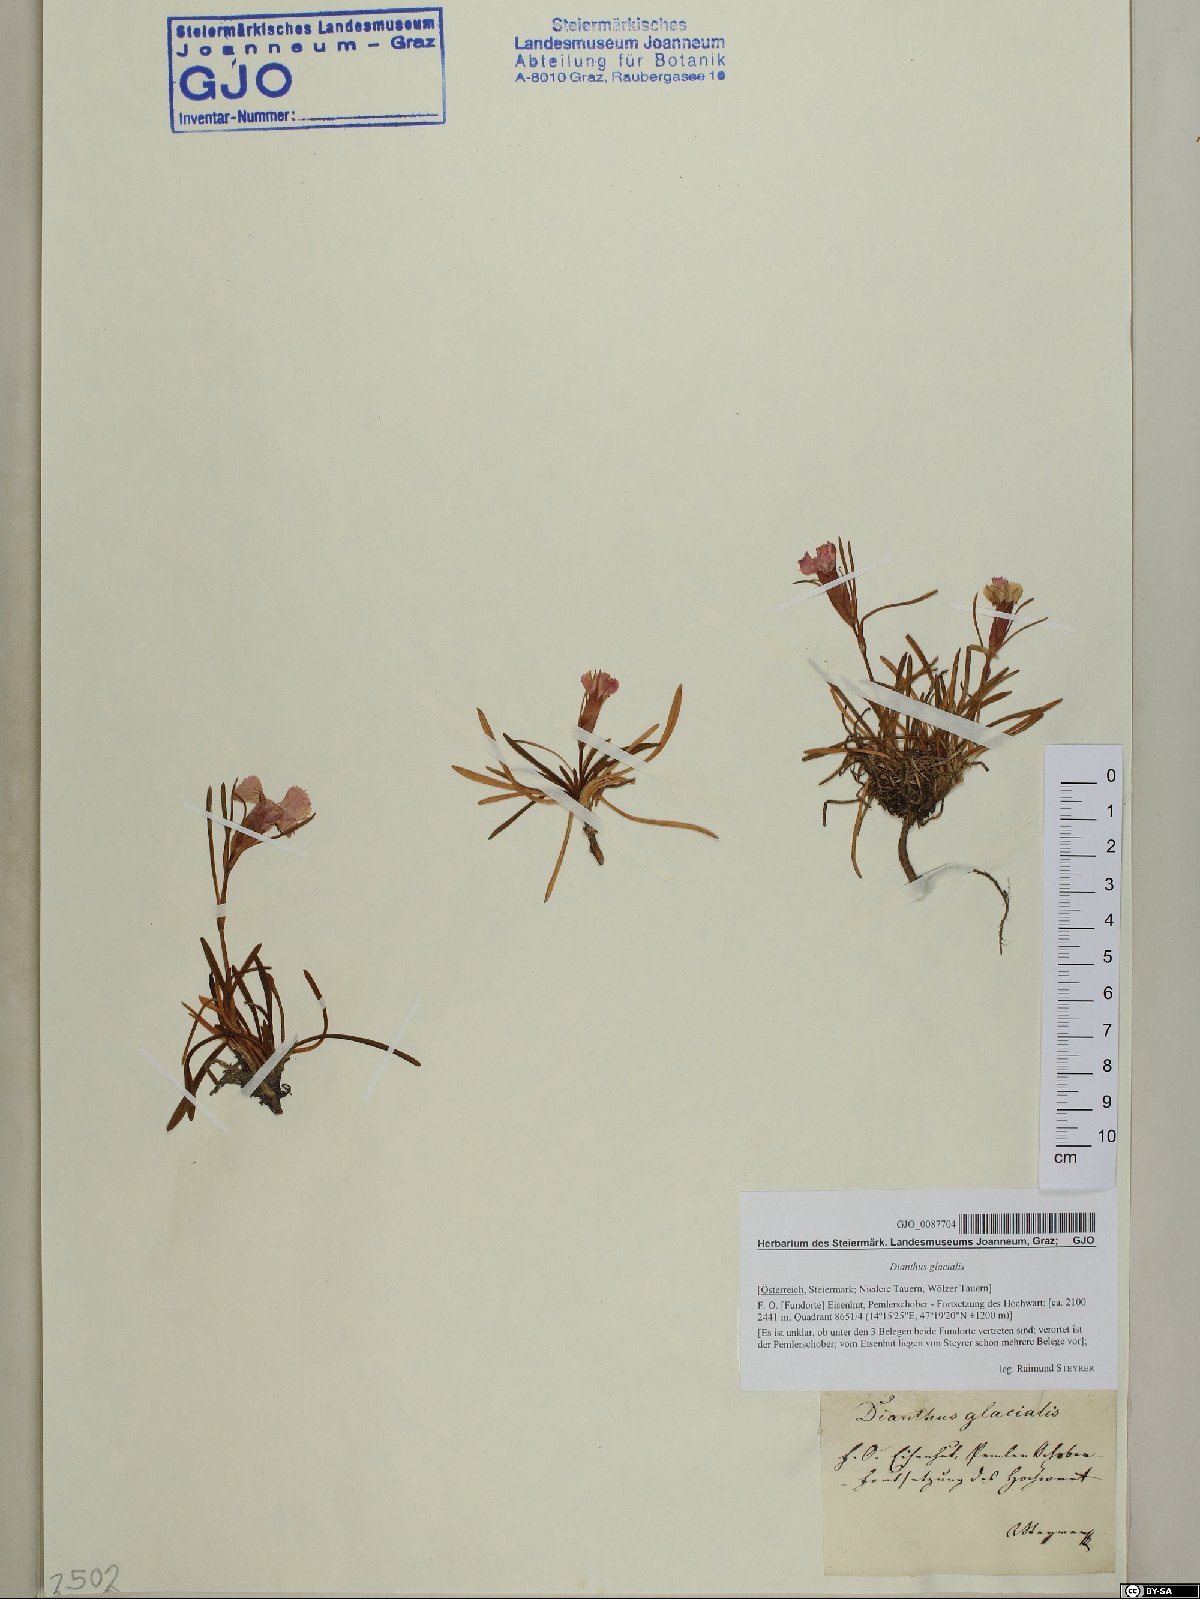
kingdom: Plantae
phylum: Tracheophyta
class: Magnoliopsida
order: Caryophyllales
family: Caryophyllaceae
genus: Dianthus
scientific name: Dianthus glacialis
